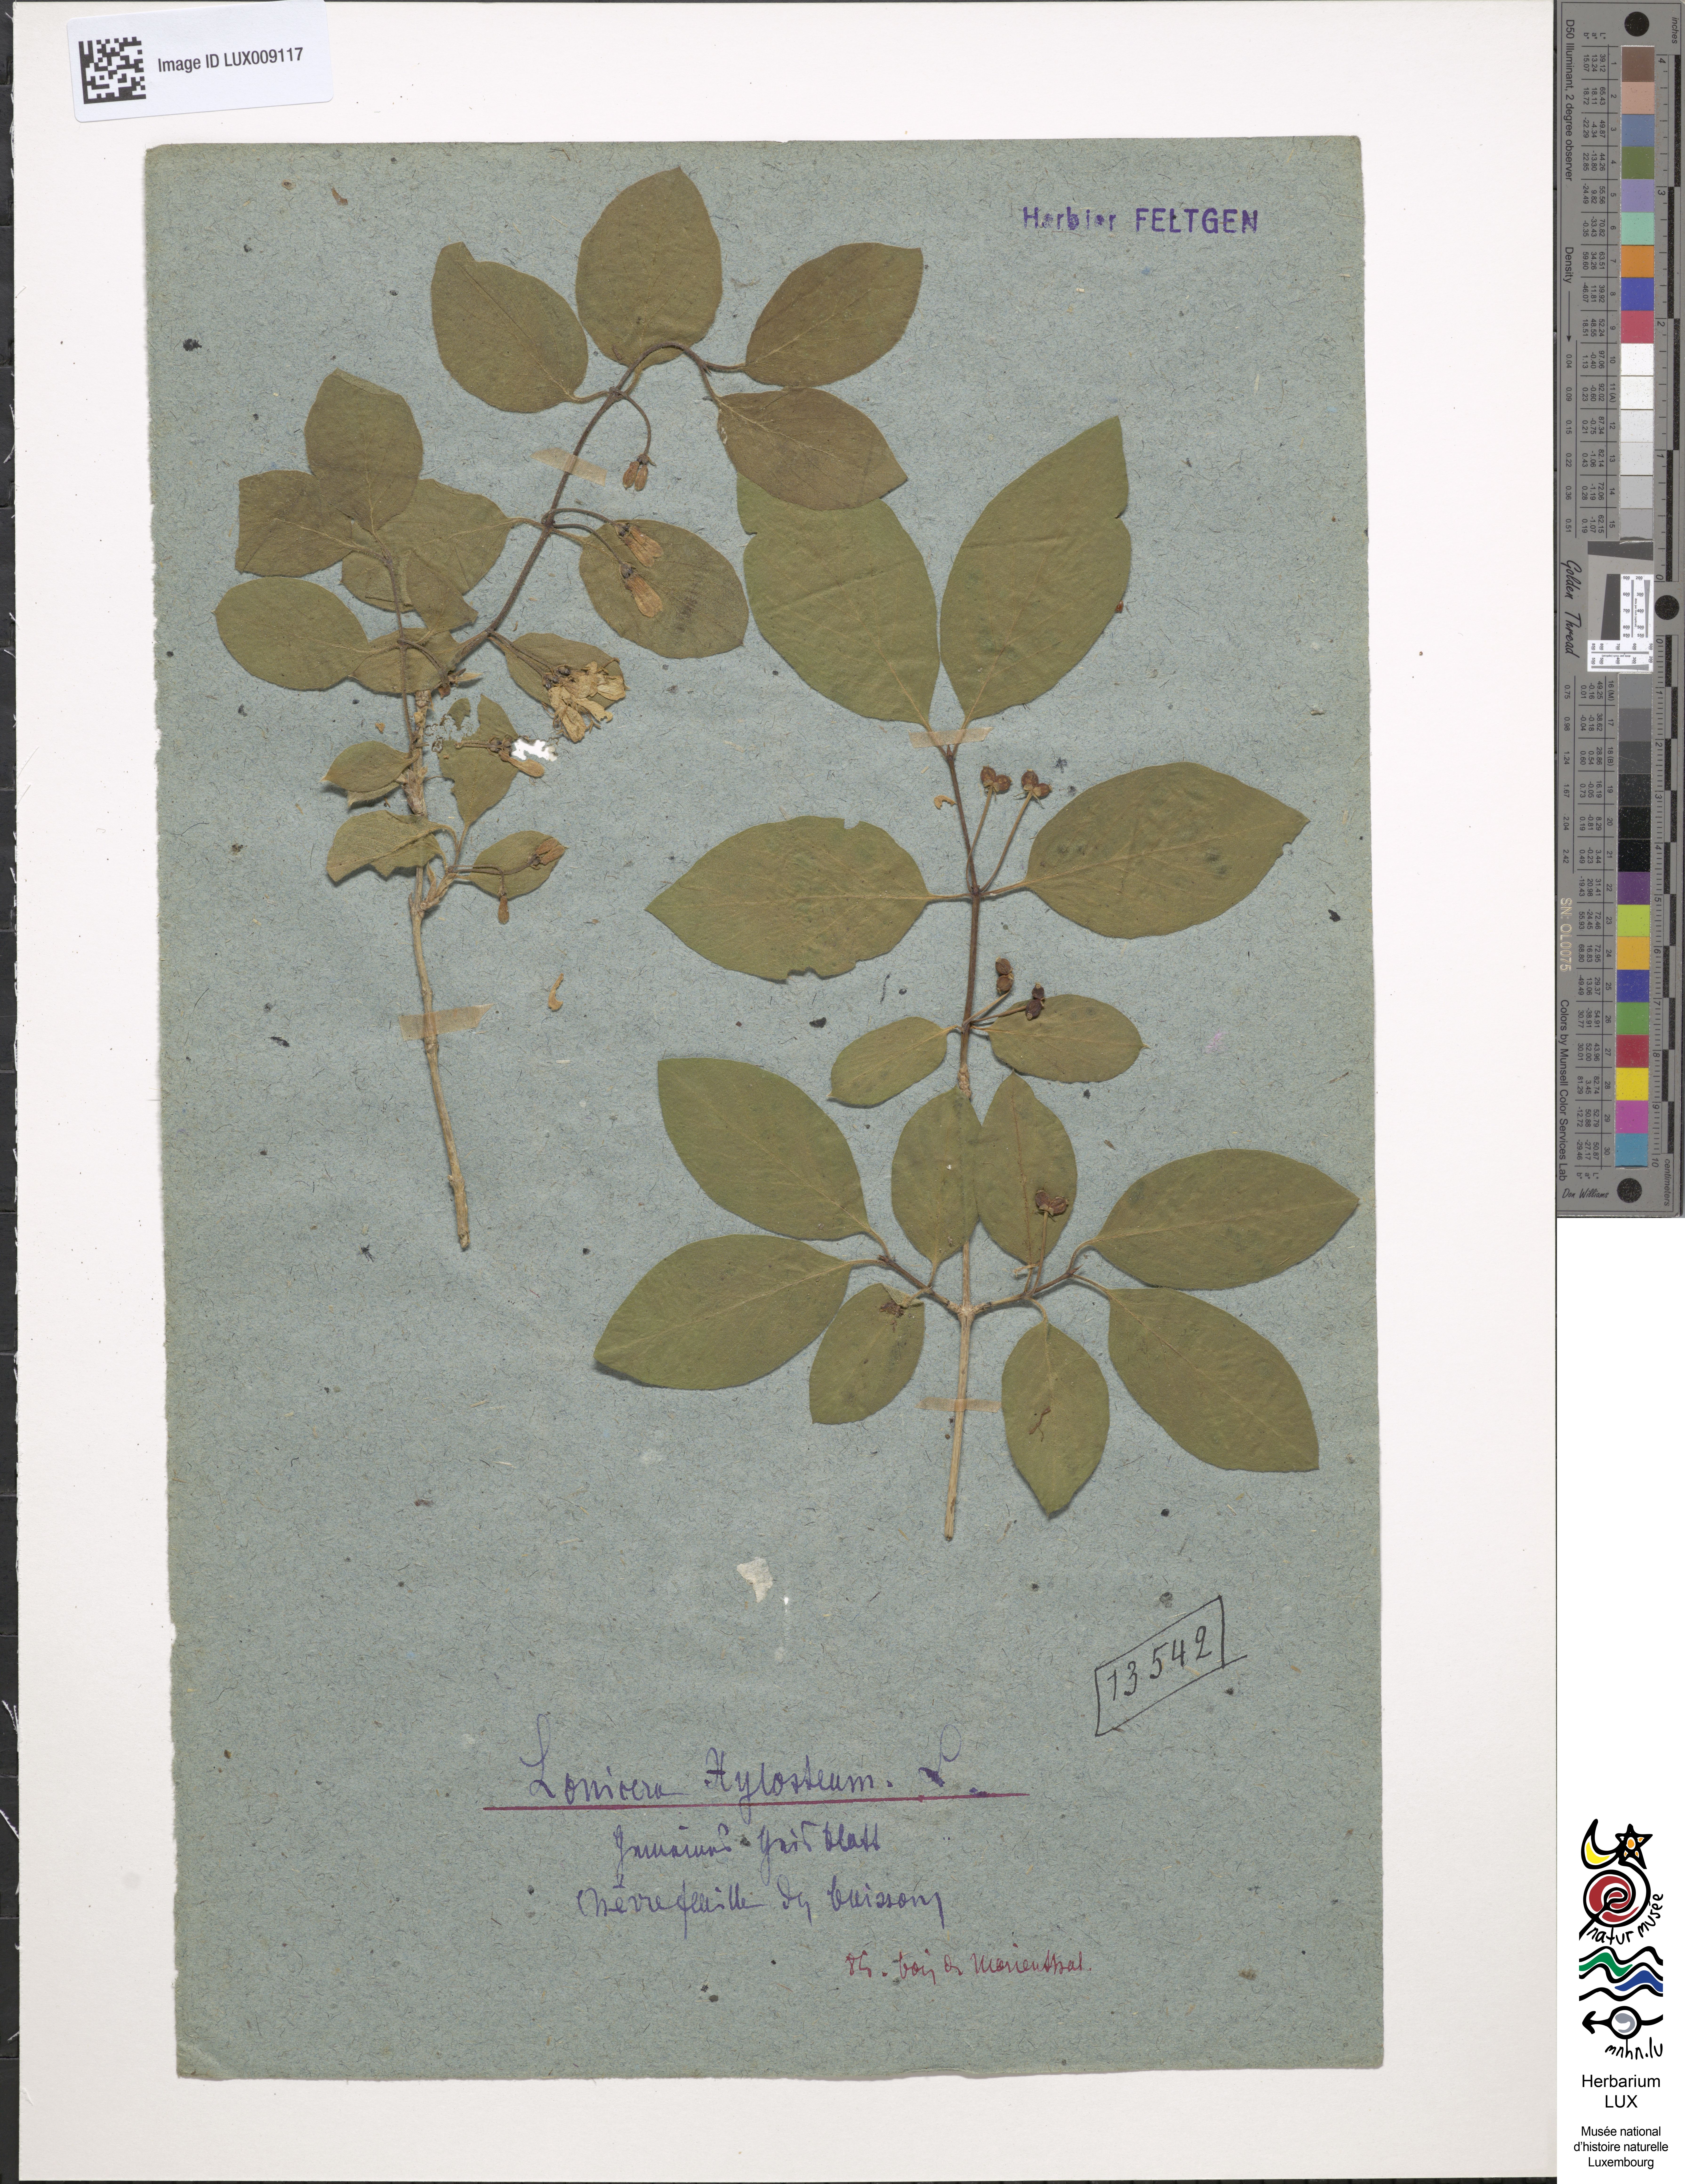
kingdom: Plantae
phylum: Tracheophyta
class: Magnoliopsida
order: Dipsacales
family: Caprifoliaceae
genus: Lonicera
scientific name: Lonicera xylosteum
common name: Fly honeysuckle
